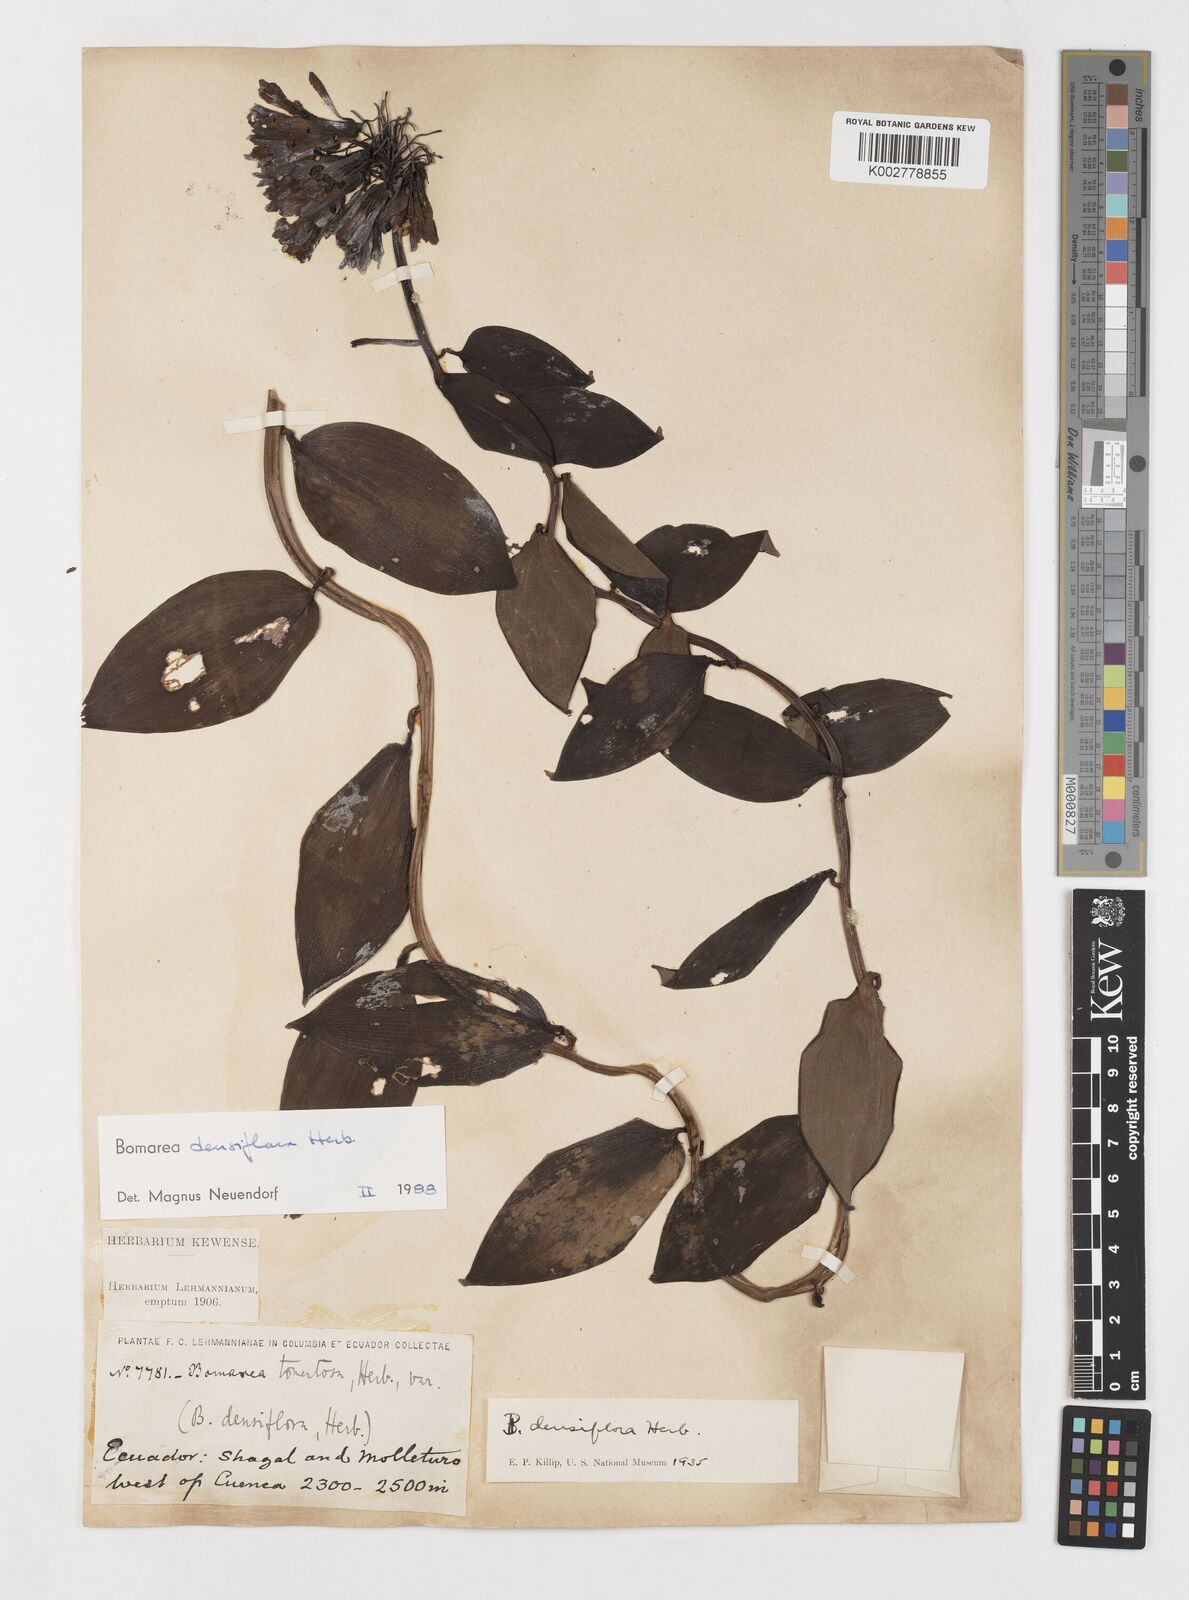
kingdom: Plantae
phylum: Tracheophyta
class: Liliopsida
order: Liliales
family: Alstroemeriaceae
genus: Bomarea
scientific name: Bomarea densiflora
